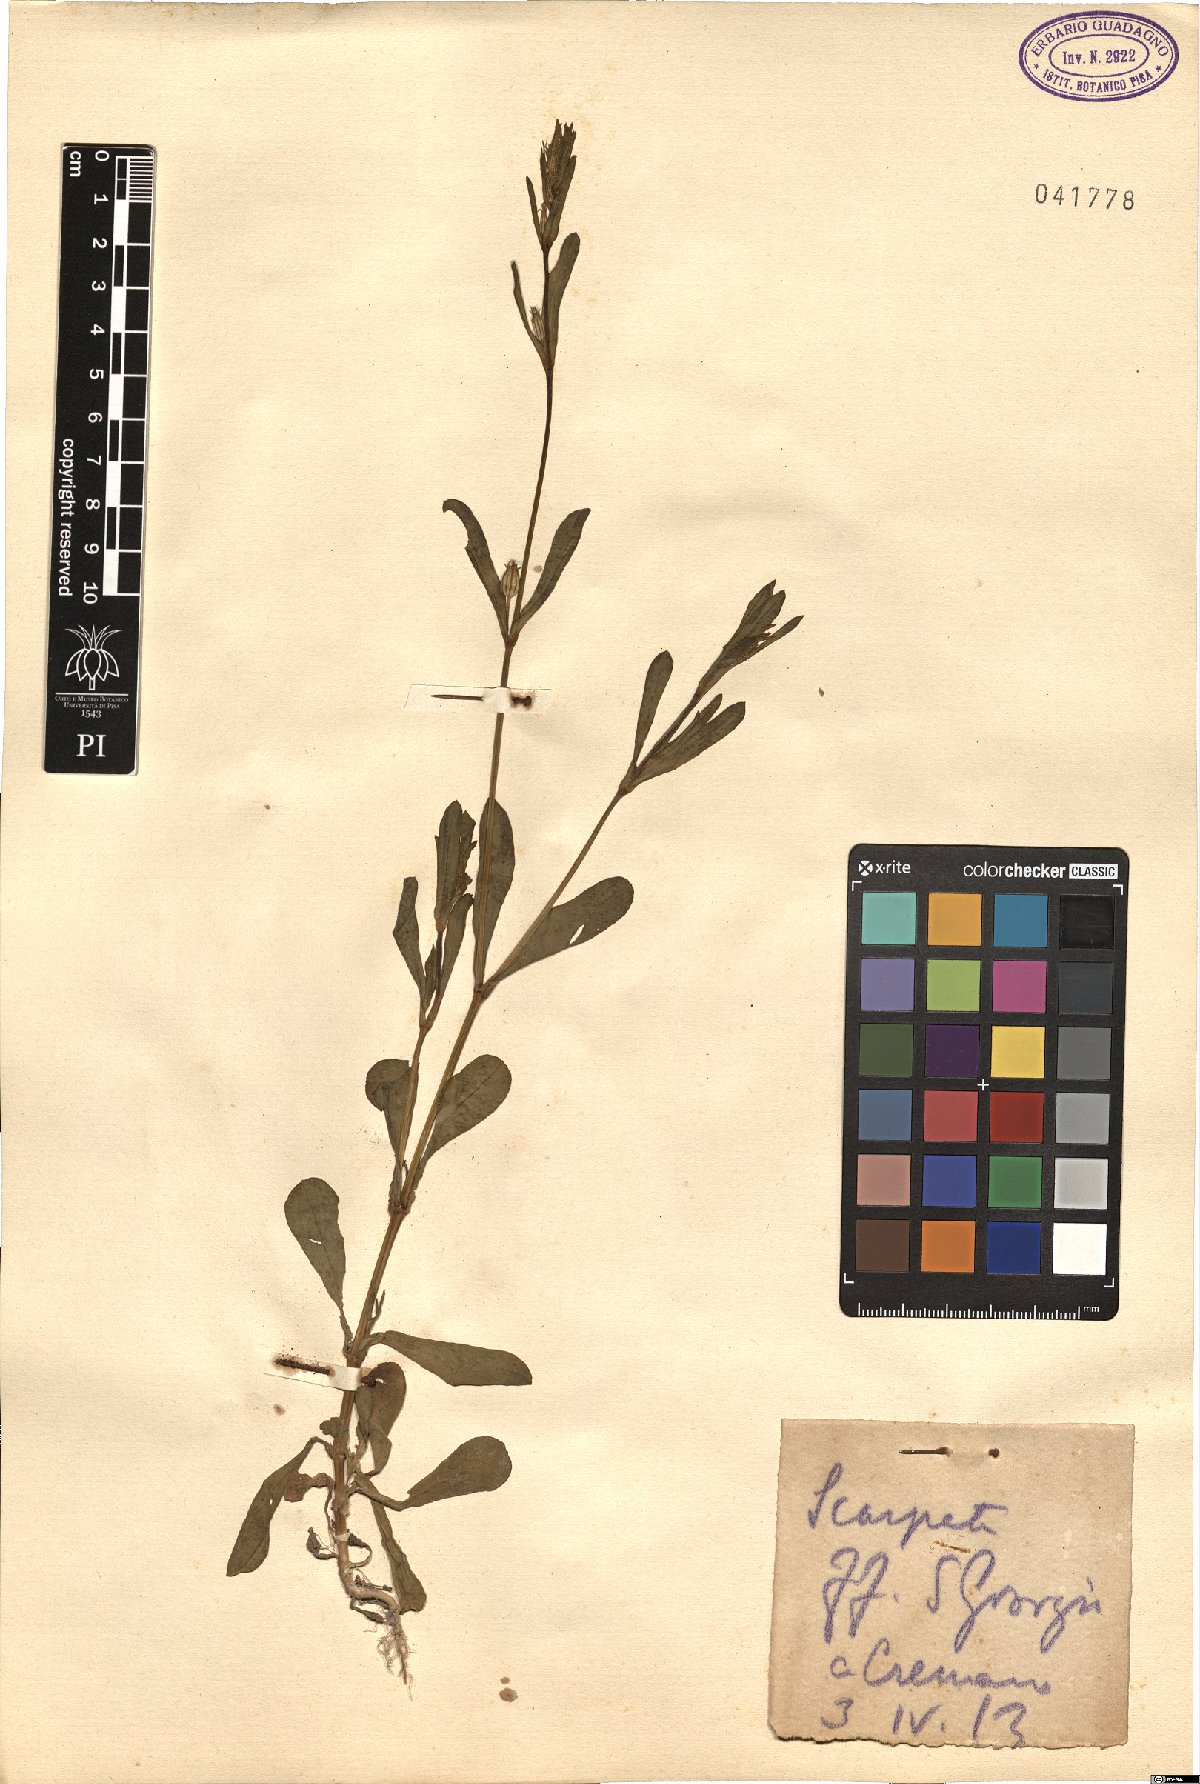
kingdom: Plantae
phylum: Tracheophyta
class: Magnoliopsida
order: Caryophyllales
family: Caryophyllaceae
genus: Silene
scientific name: Silene
